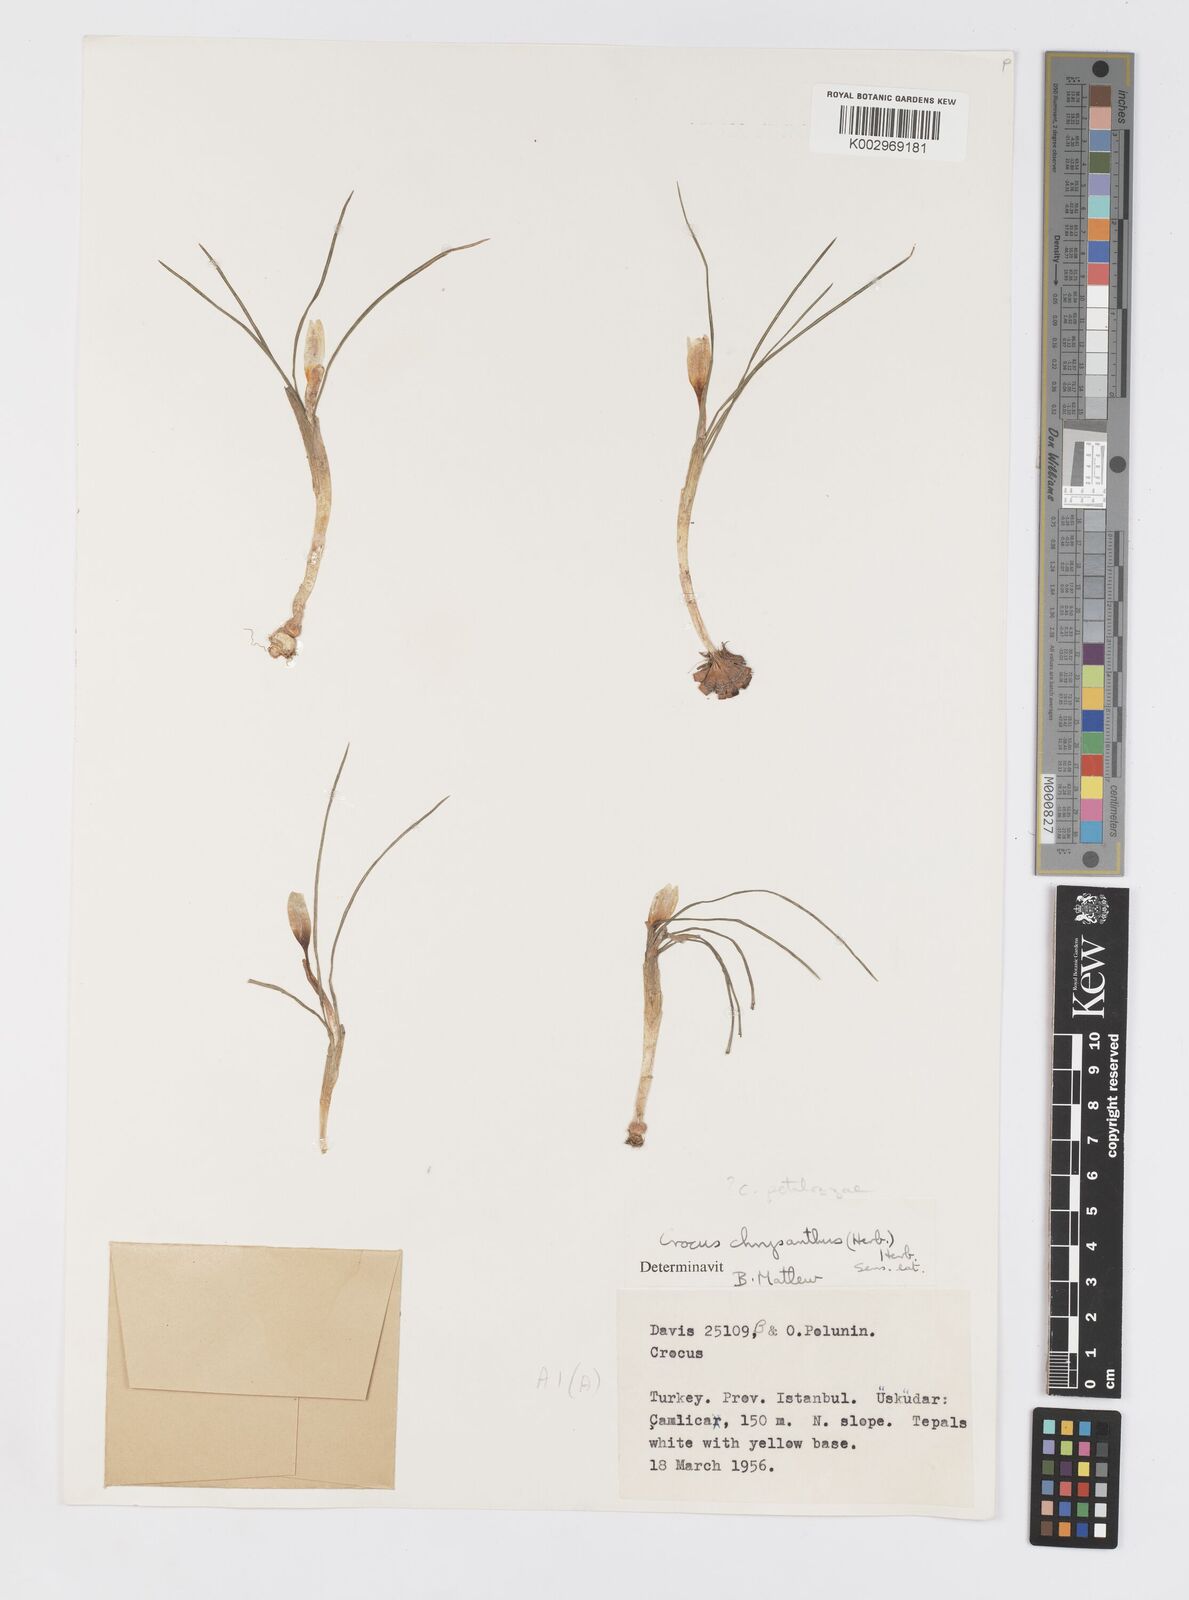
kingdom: Plantae
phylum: Tracheophyta
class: Liliopsida
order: Asparagales
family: Iridaceae
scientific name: Iridaceae
